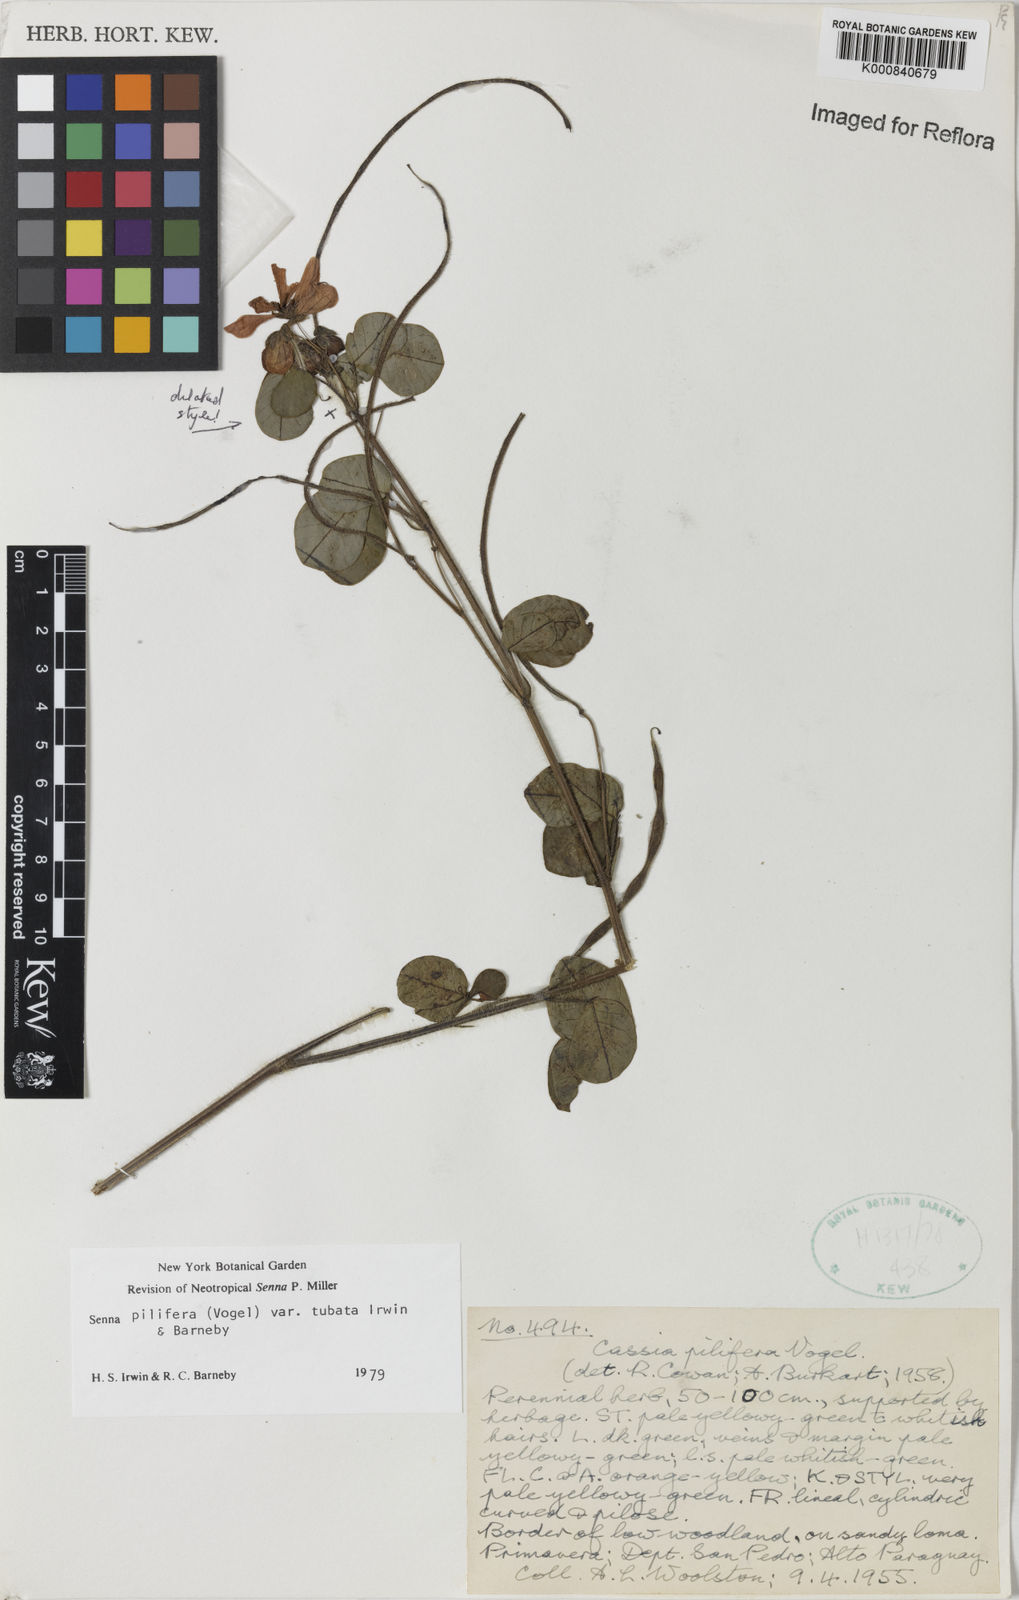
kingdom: Plantae
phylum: Tracheophyta
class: Magnoliopsida
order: Fabales
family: Fabaceae
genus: Senna
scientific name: Senna pilifera
